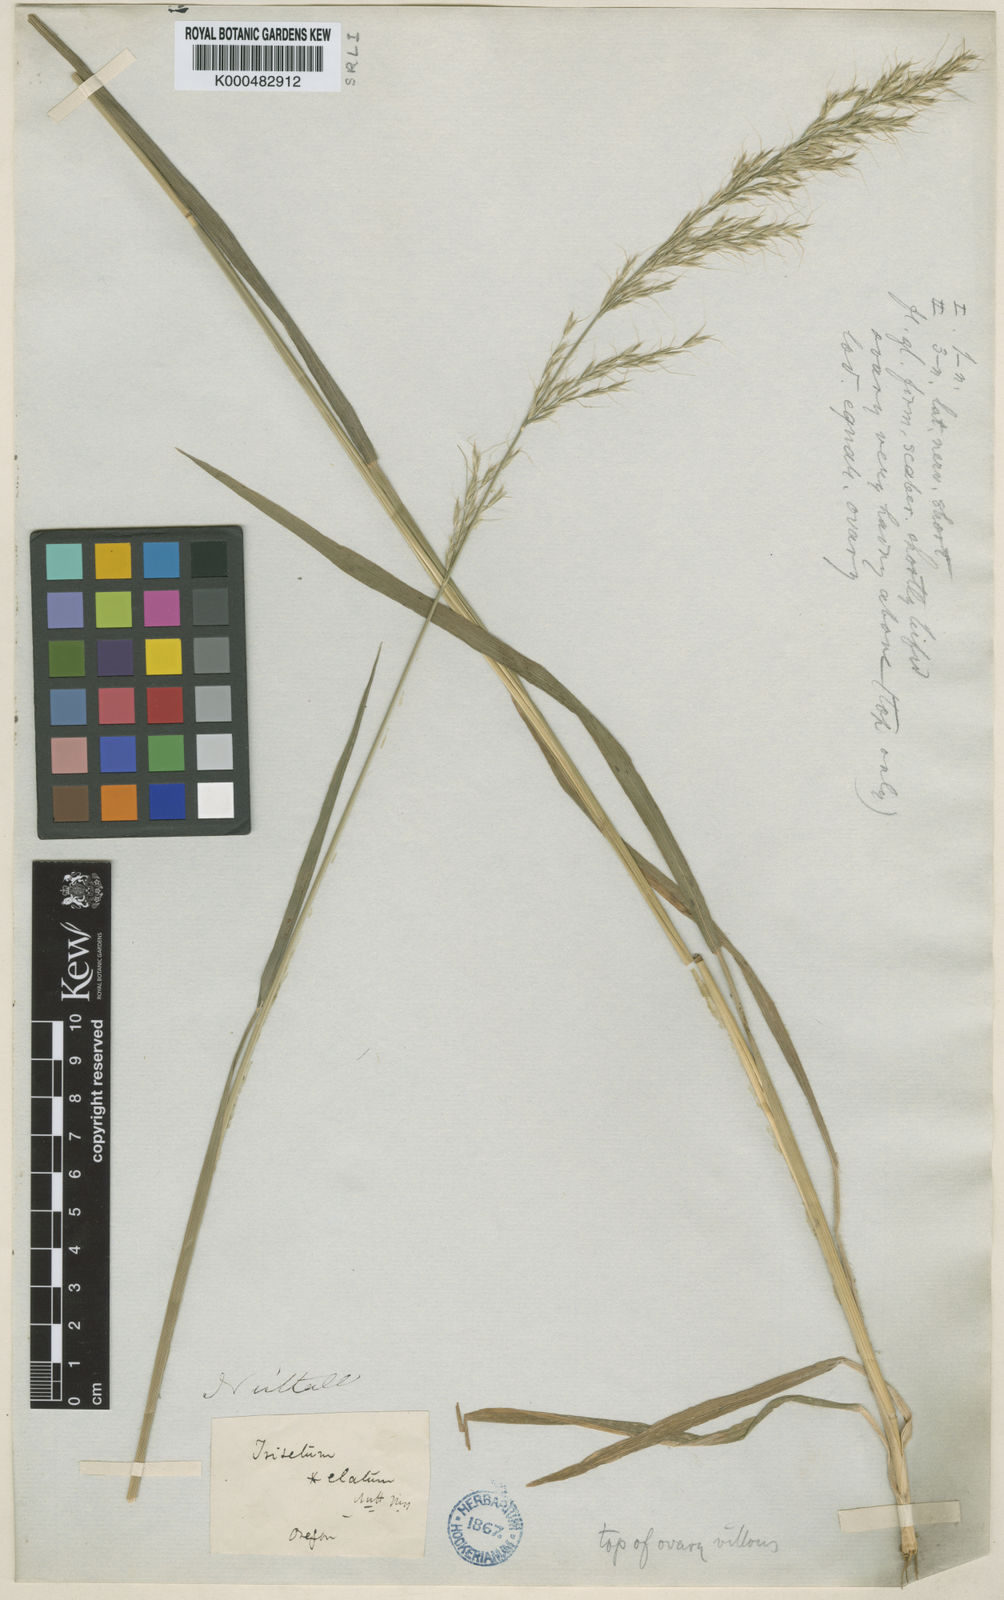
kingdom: Plantae
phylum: Tracheophyta
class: Liliopsida
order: Poales
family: Poaceae
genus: Graphephorum
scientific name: Graphephorum canescens
